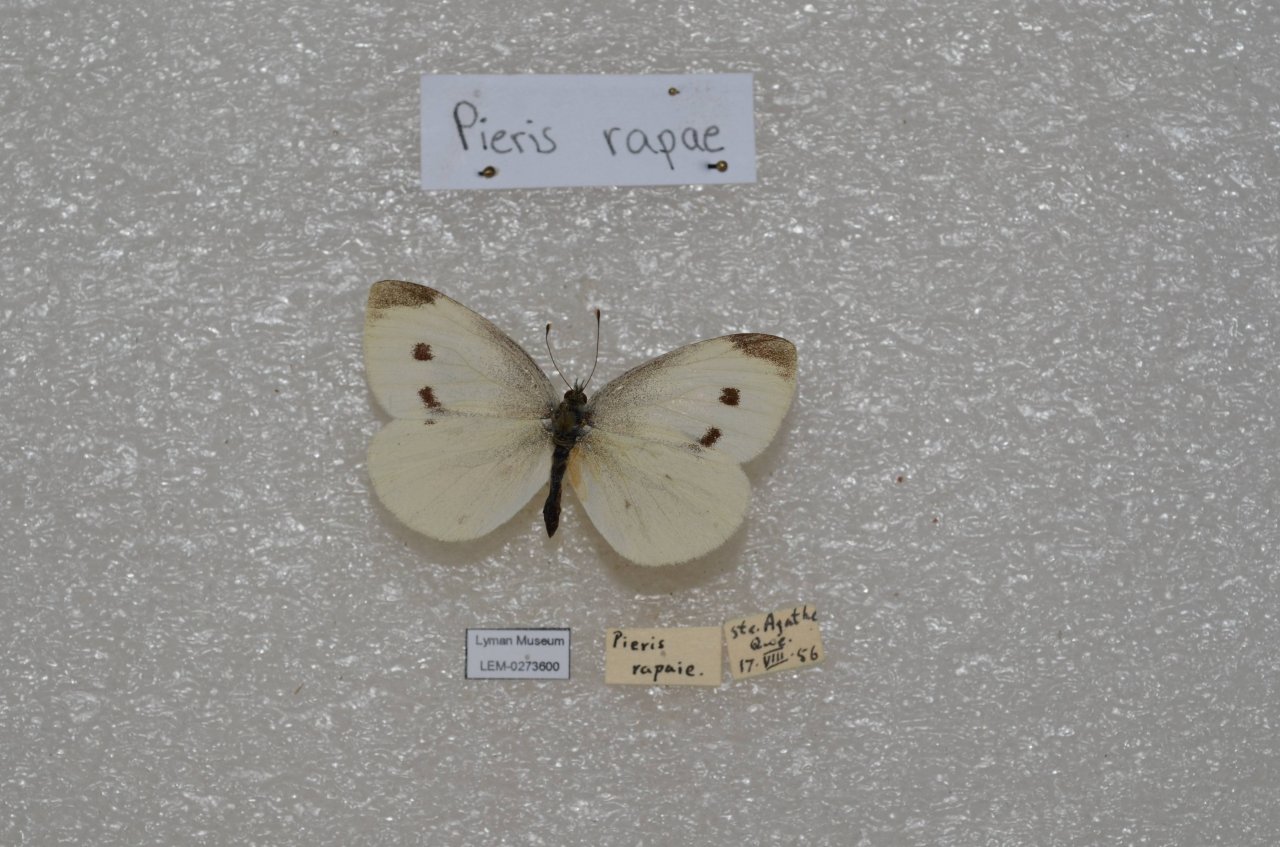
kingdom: Animalia
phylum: Arthropoda
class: Insecta
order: Lepidoptera
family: Pieridae
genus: Pieris
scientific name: Pieris rapae
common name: Cabbage White
